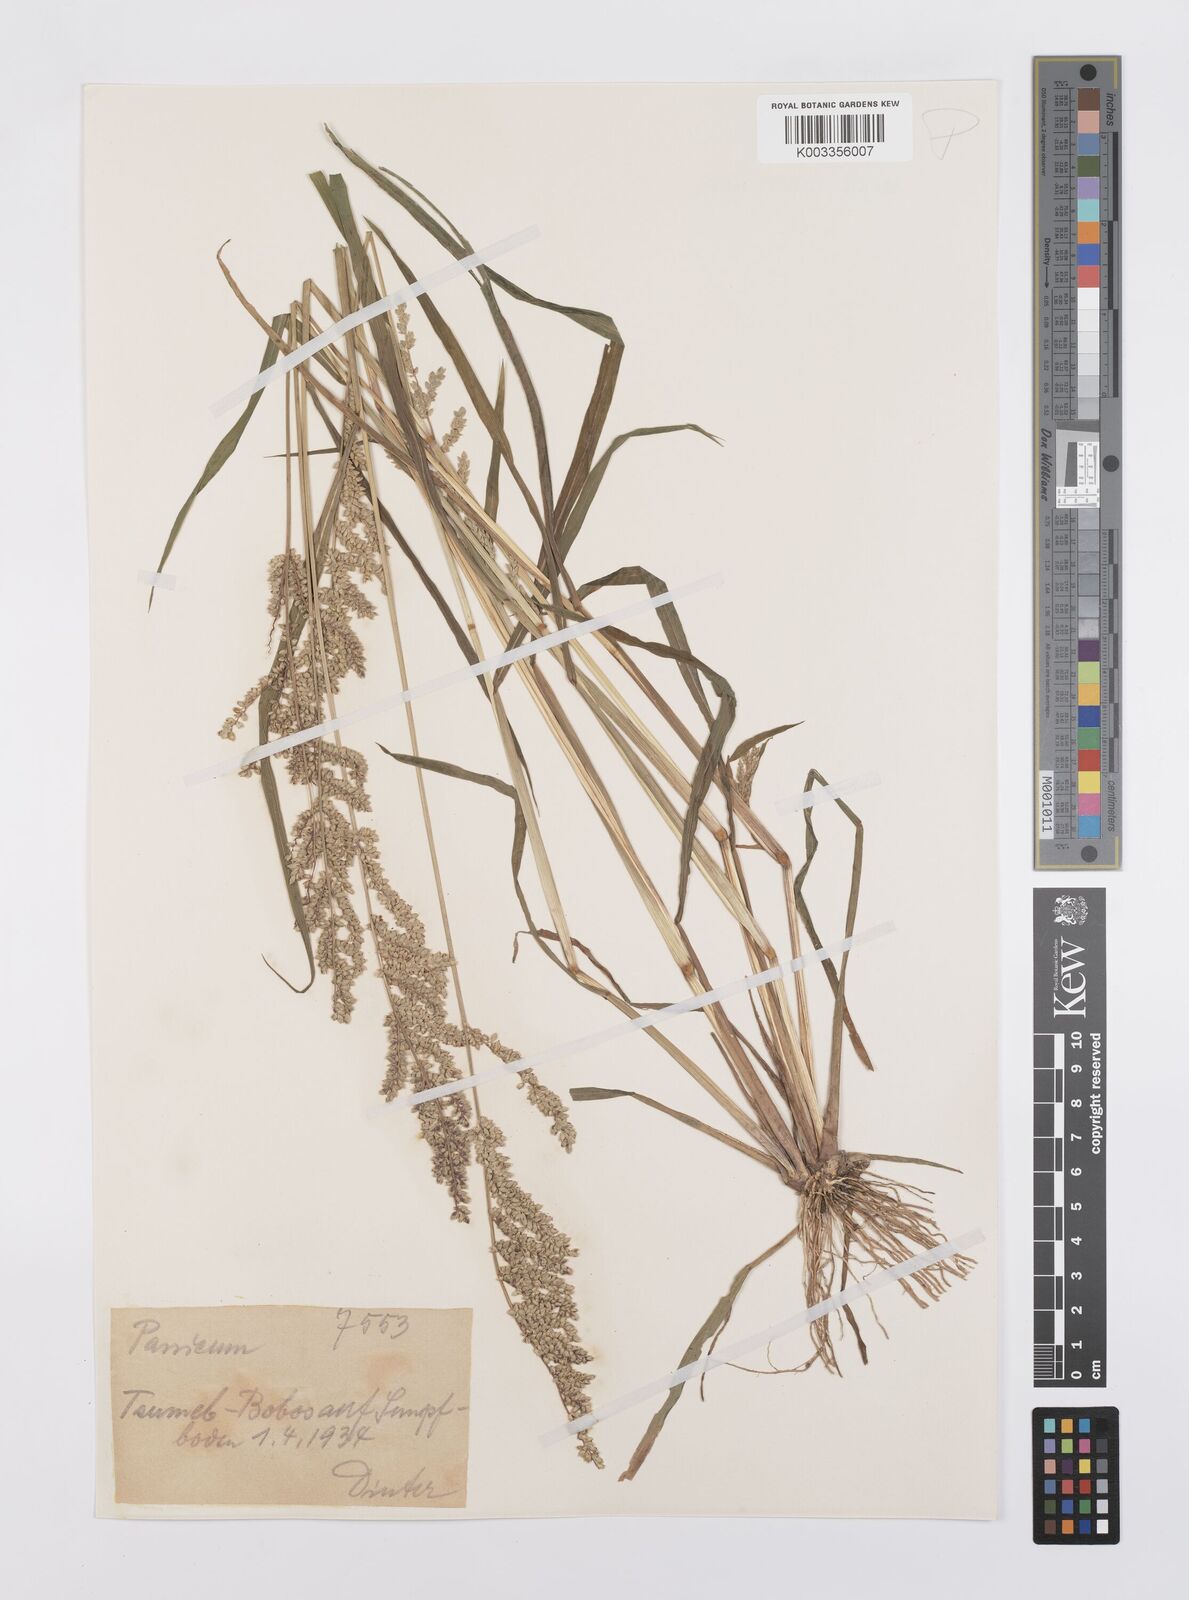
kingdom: Plantae
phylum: Tracheophyta
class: Liliopsida
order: Poales
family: Poaceae
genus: Echinochloa
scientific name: Echinochloa colonum
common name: Jungle rice
